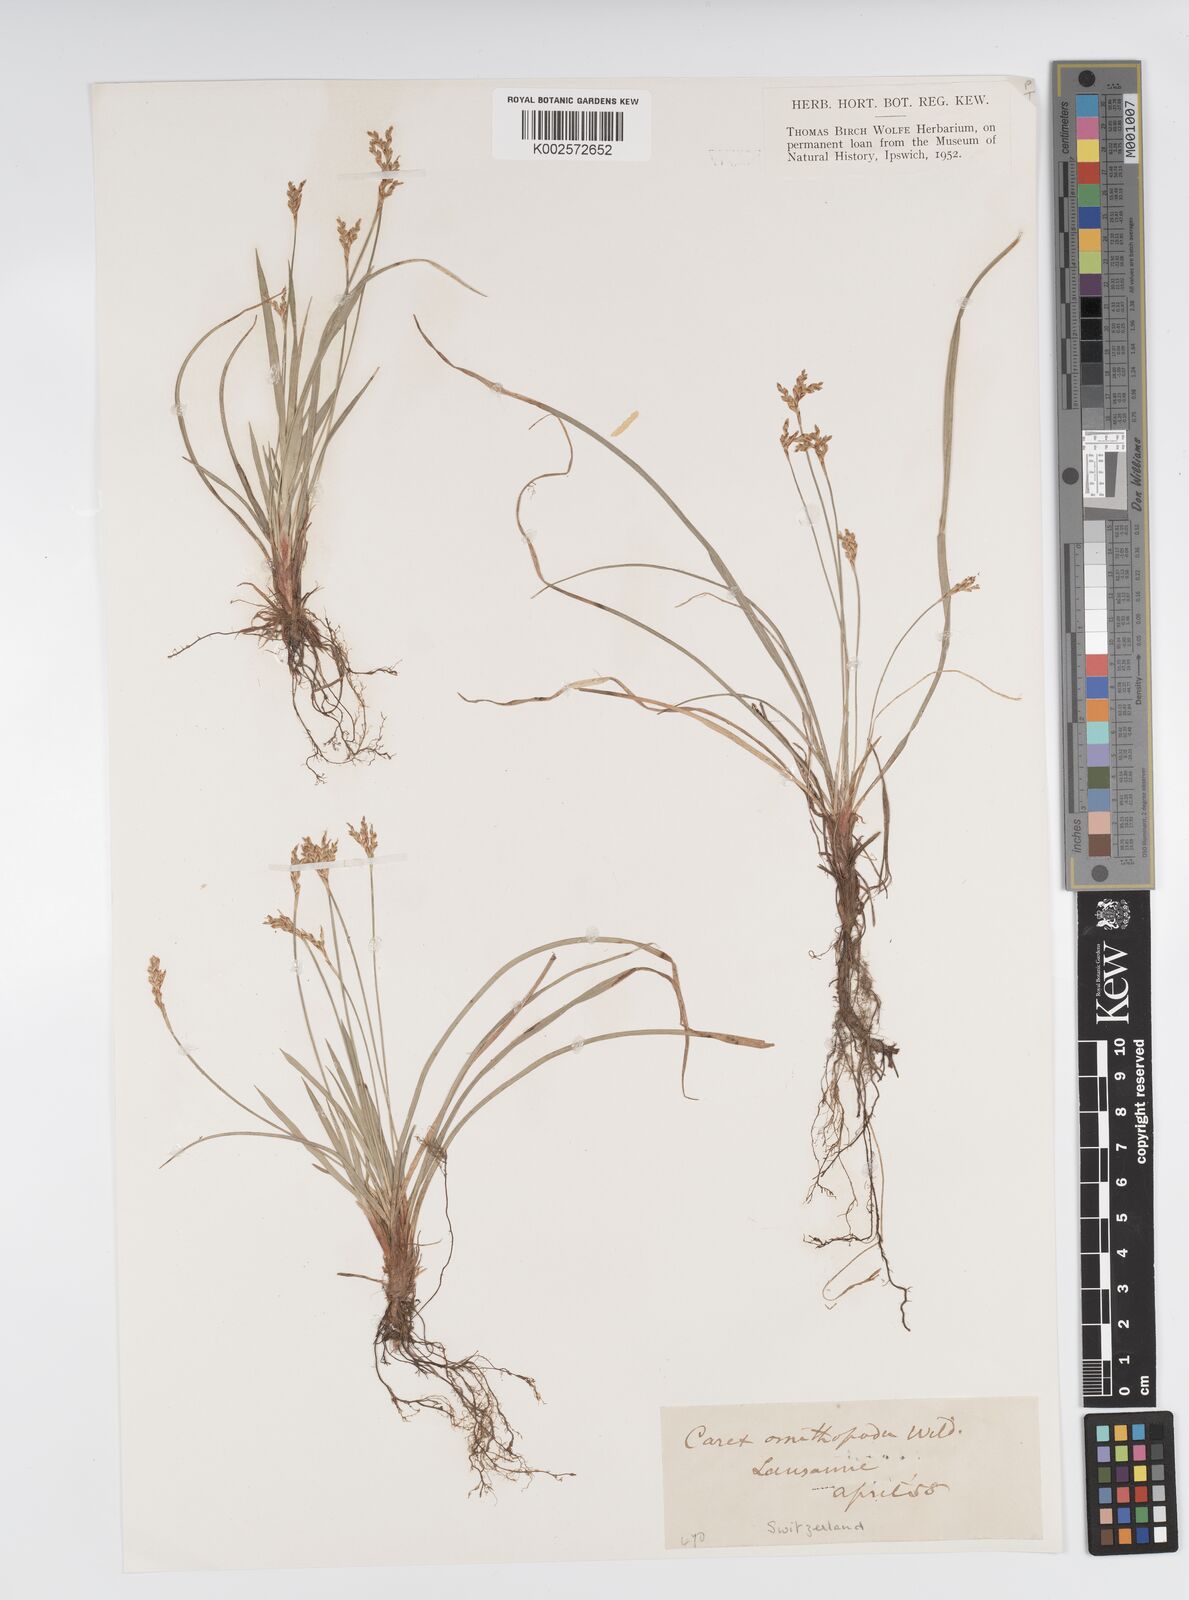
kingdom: Plantae
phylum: Tracheophyta
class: Liliopsida
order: Poales
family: Cyperaceae
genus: Carex
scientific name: Carex ornithopoda
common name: Bird's-foot sedge
